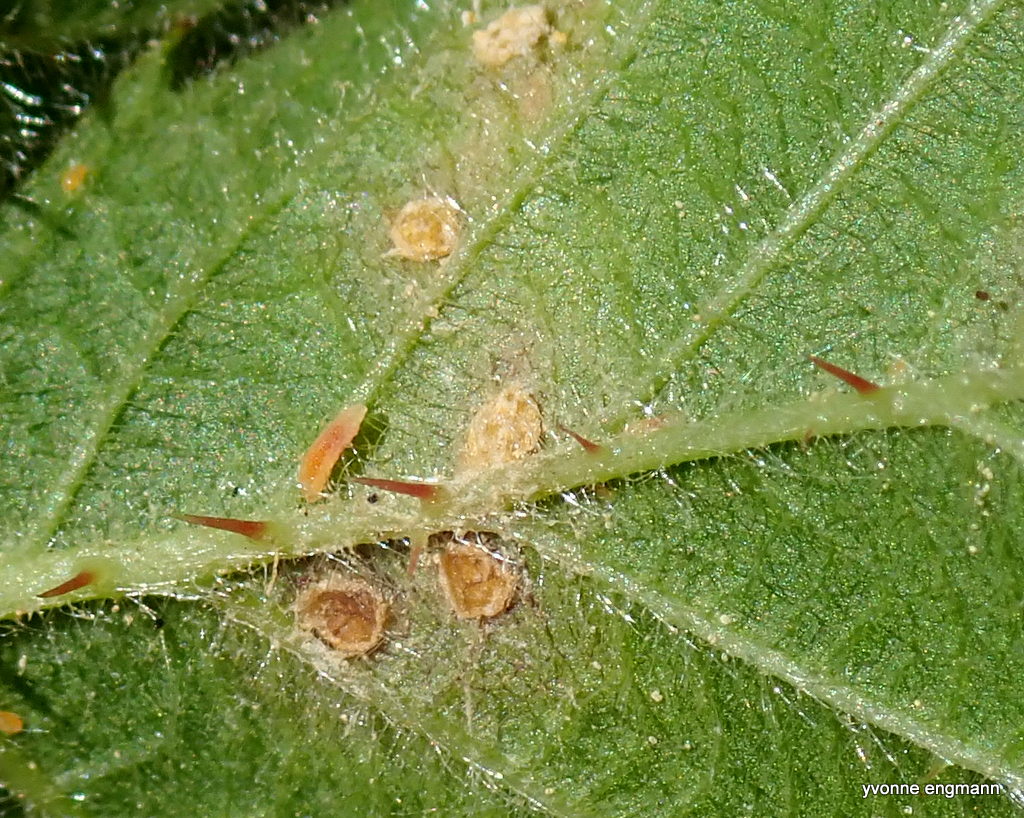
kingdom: Fungi
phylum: Basidiomycota
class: Pucciniomycetes
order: Pucciniales
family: Phragmidiaceae
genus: Phragmidium
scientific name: Phragmidium violaceum
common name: violet flercellerust
